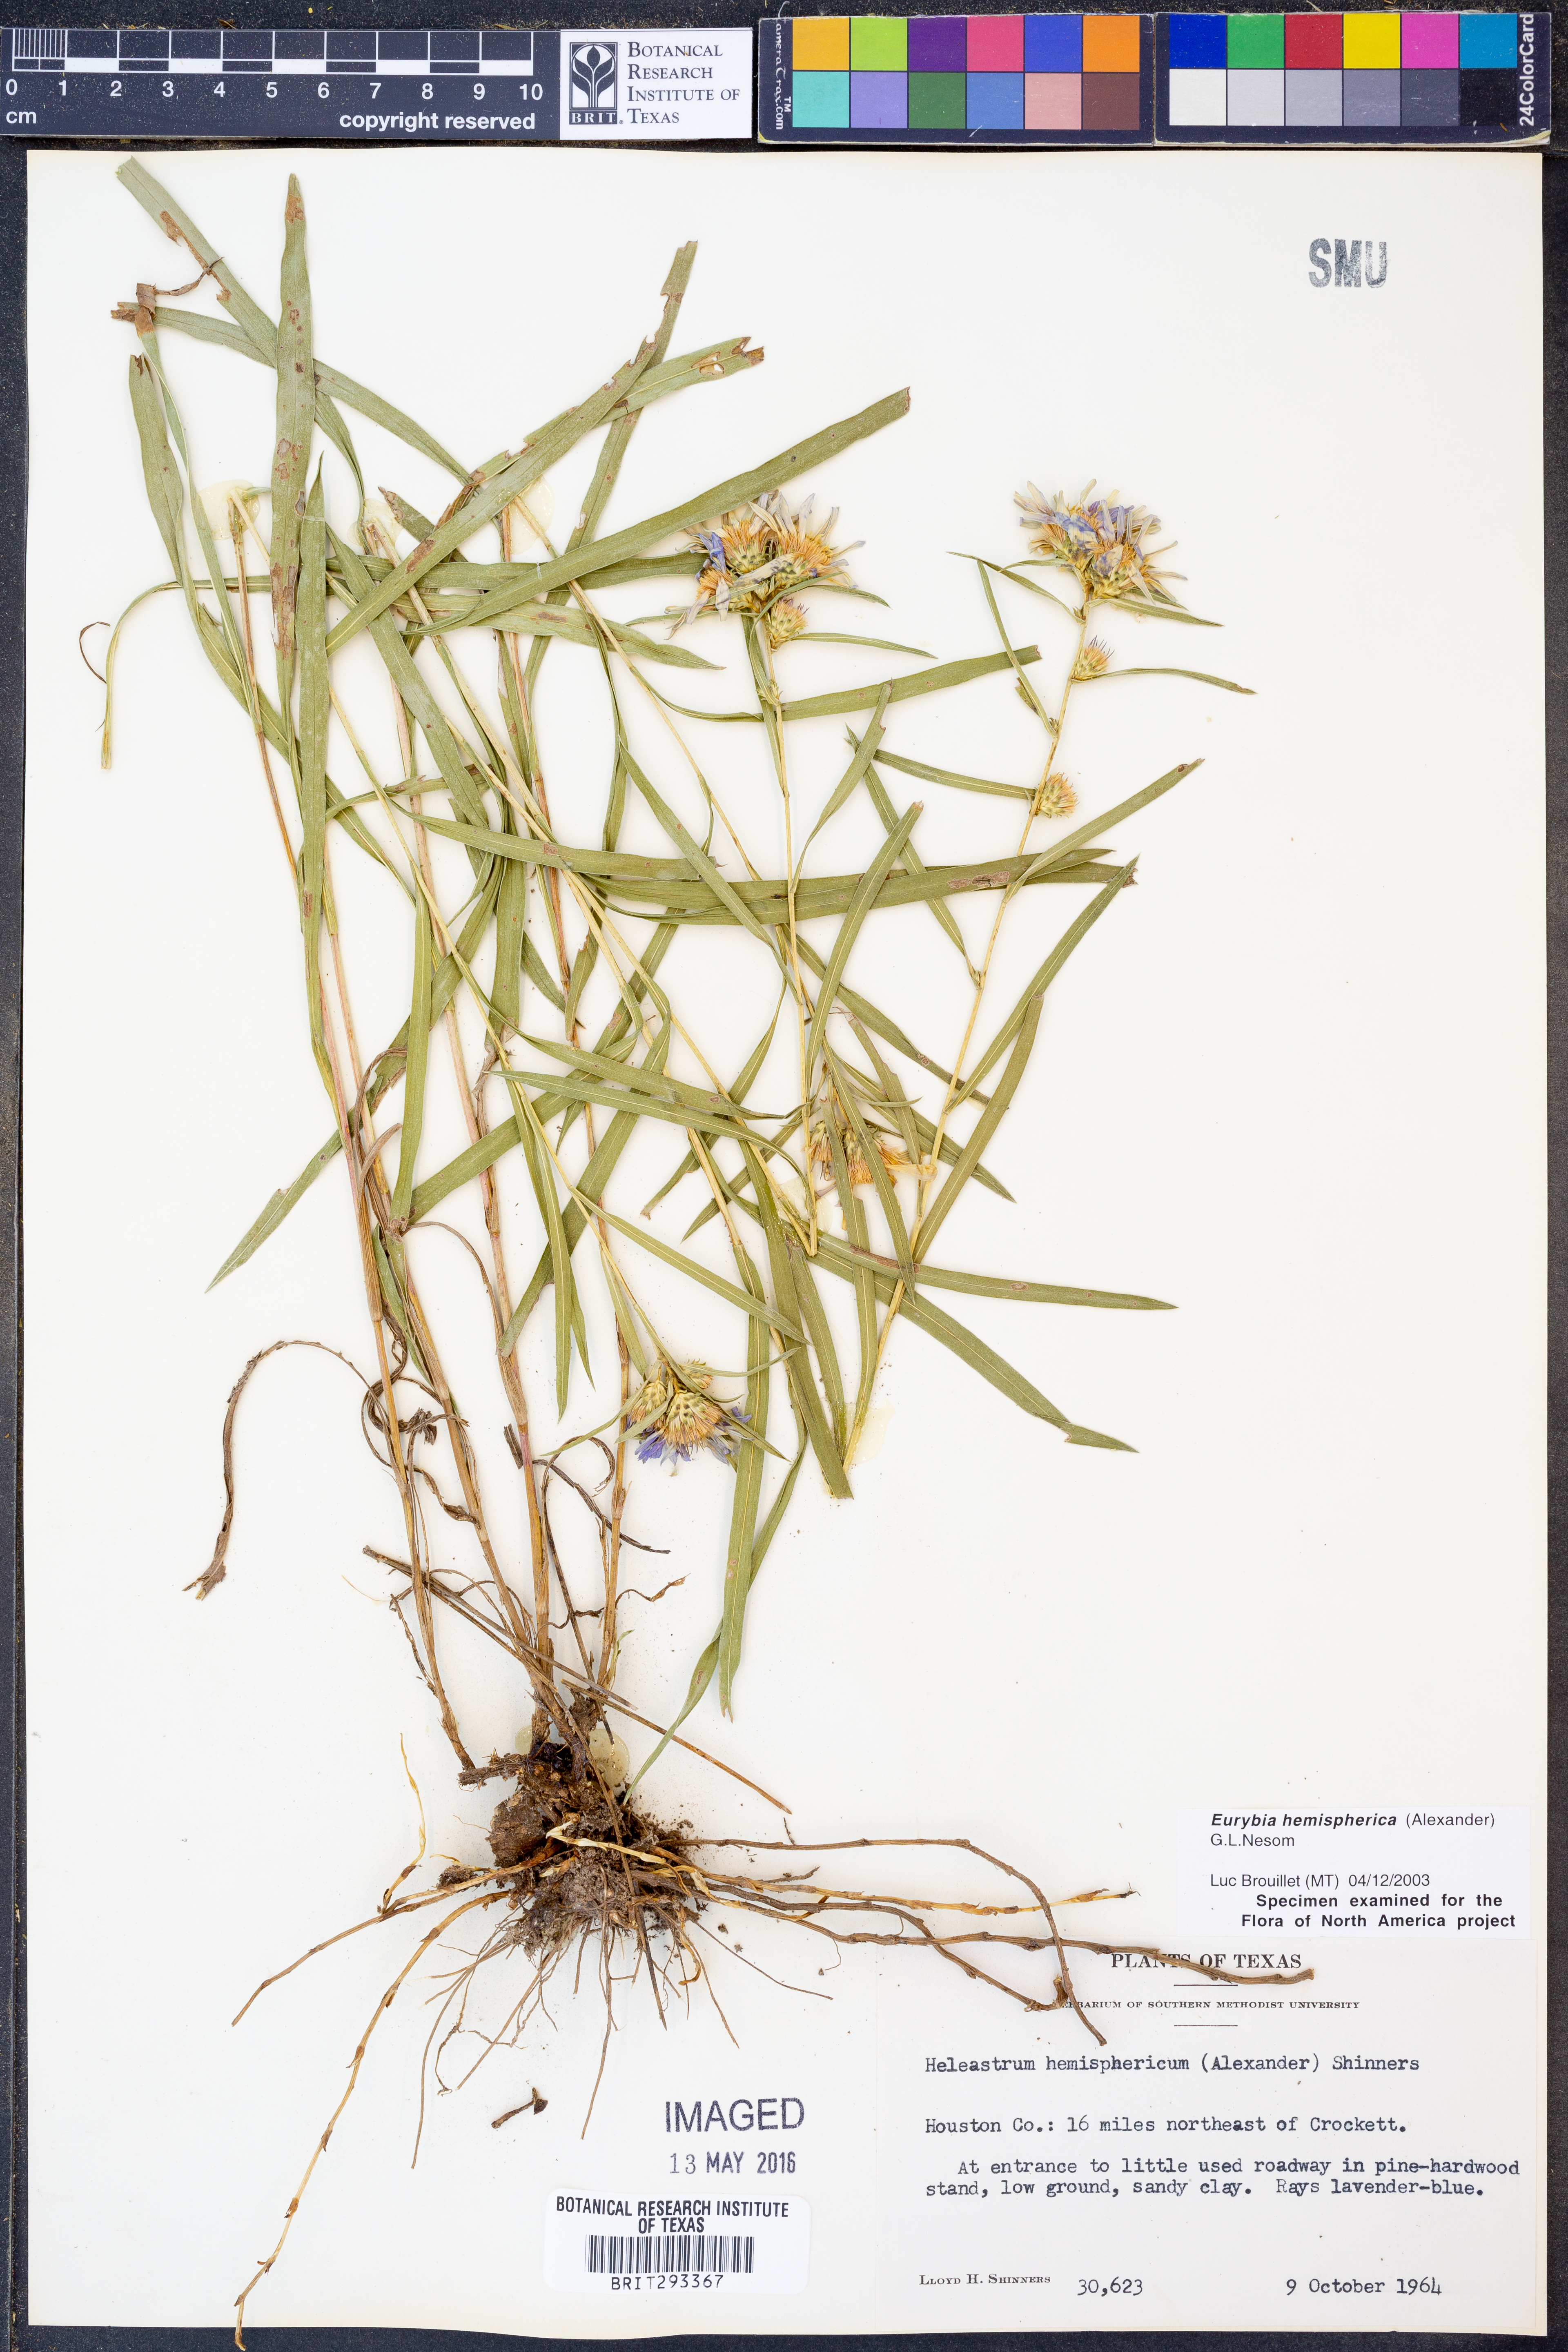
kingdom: Plantae
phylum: Tracheophyta
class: Magnoliopsida
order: Asterales
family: Asteraceae
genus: Eurybia
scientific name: Eurybia hemispherica
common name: Showy aster
